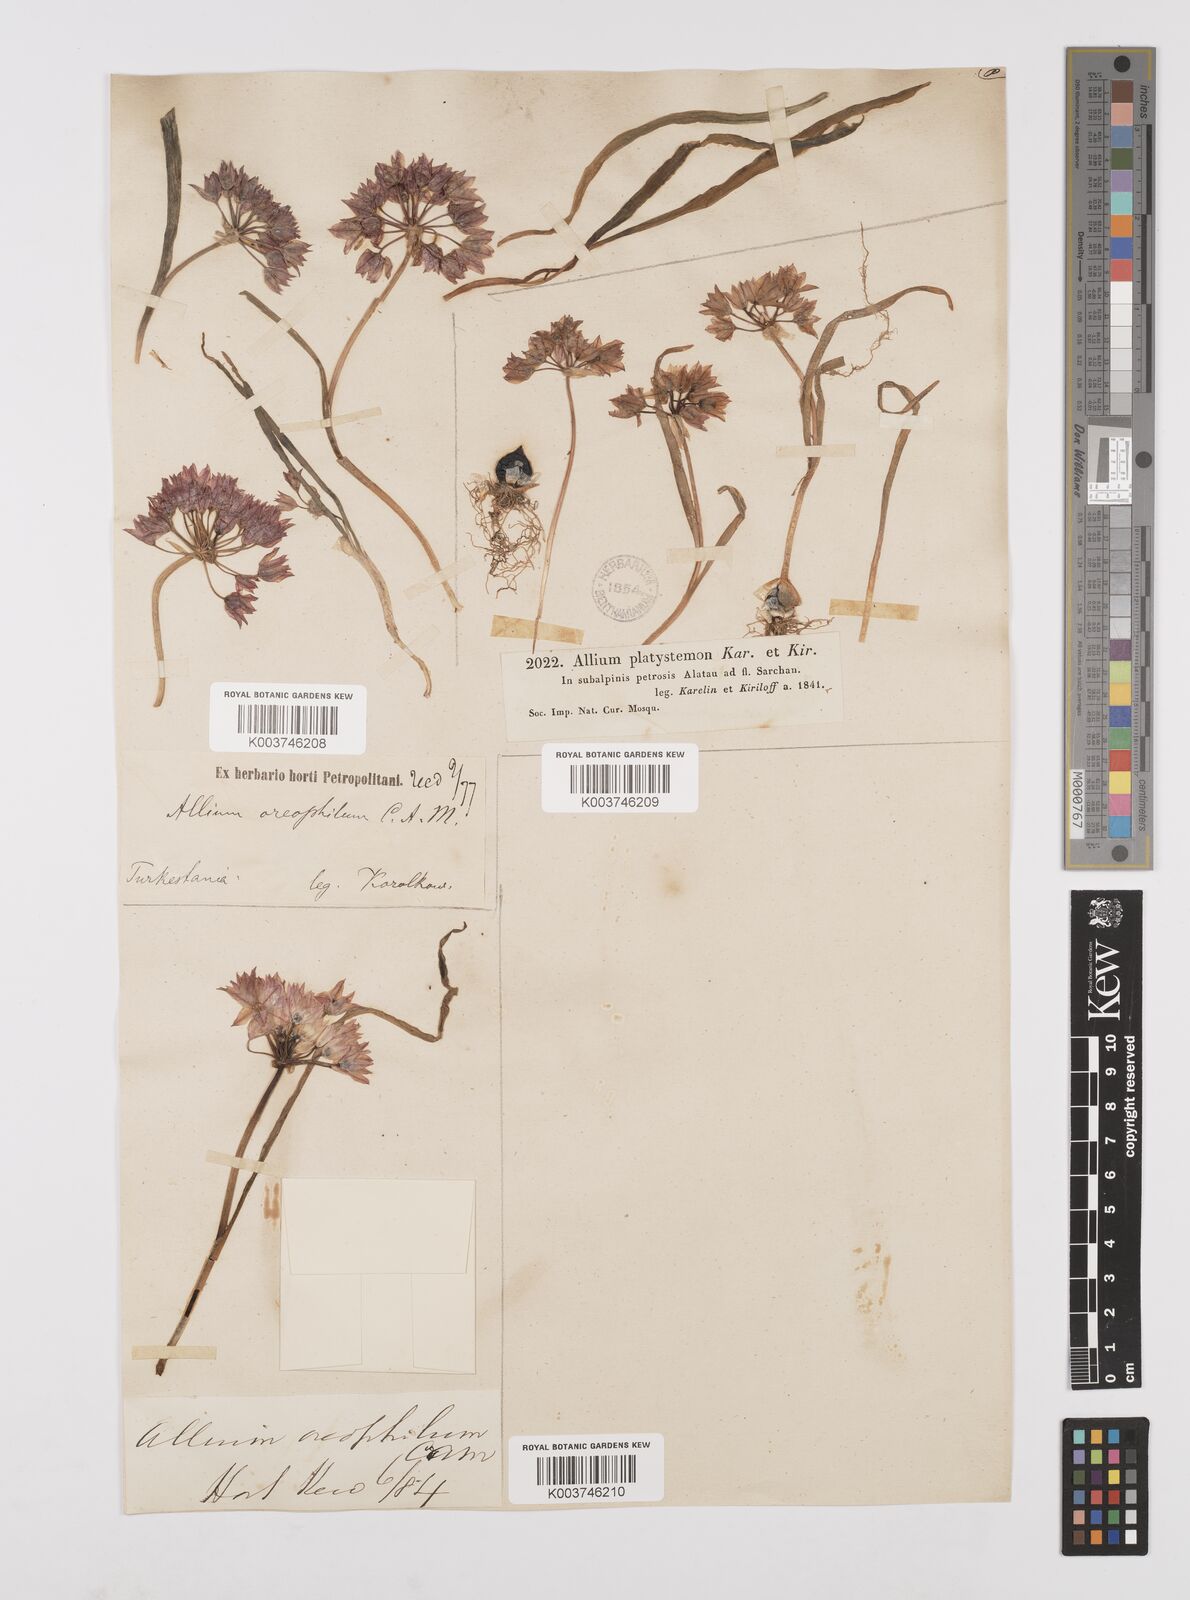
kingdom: Plantae
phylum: Tracheophyta
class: Liliopsida
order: Asparagales
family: Amaryllidaceae
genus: Allium
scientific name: Allium oreophilum
